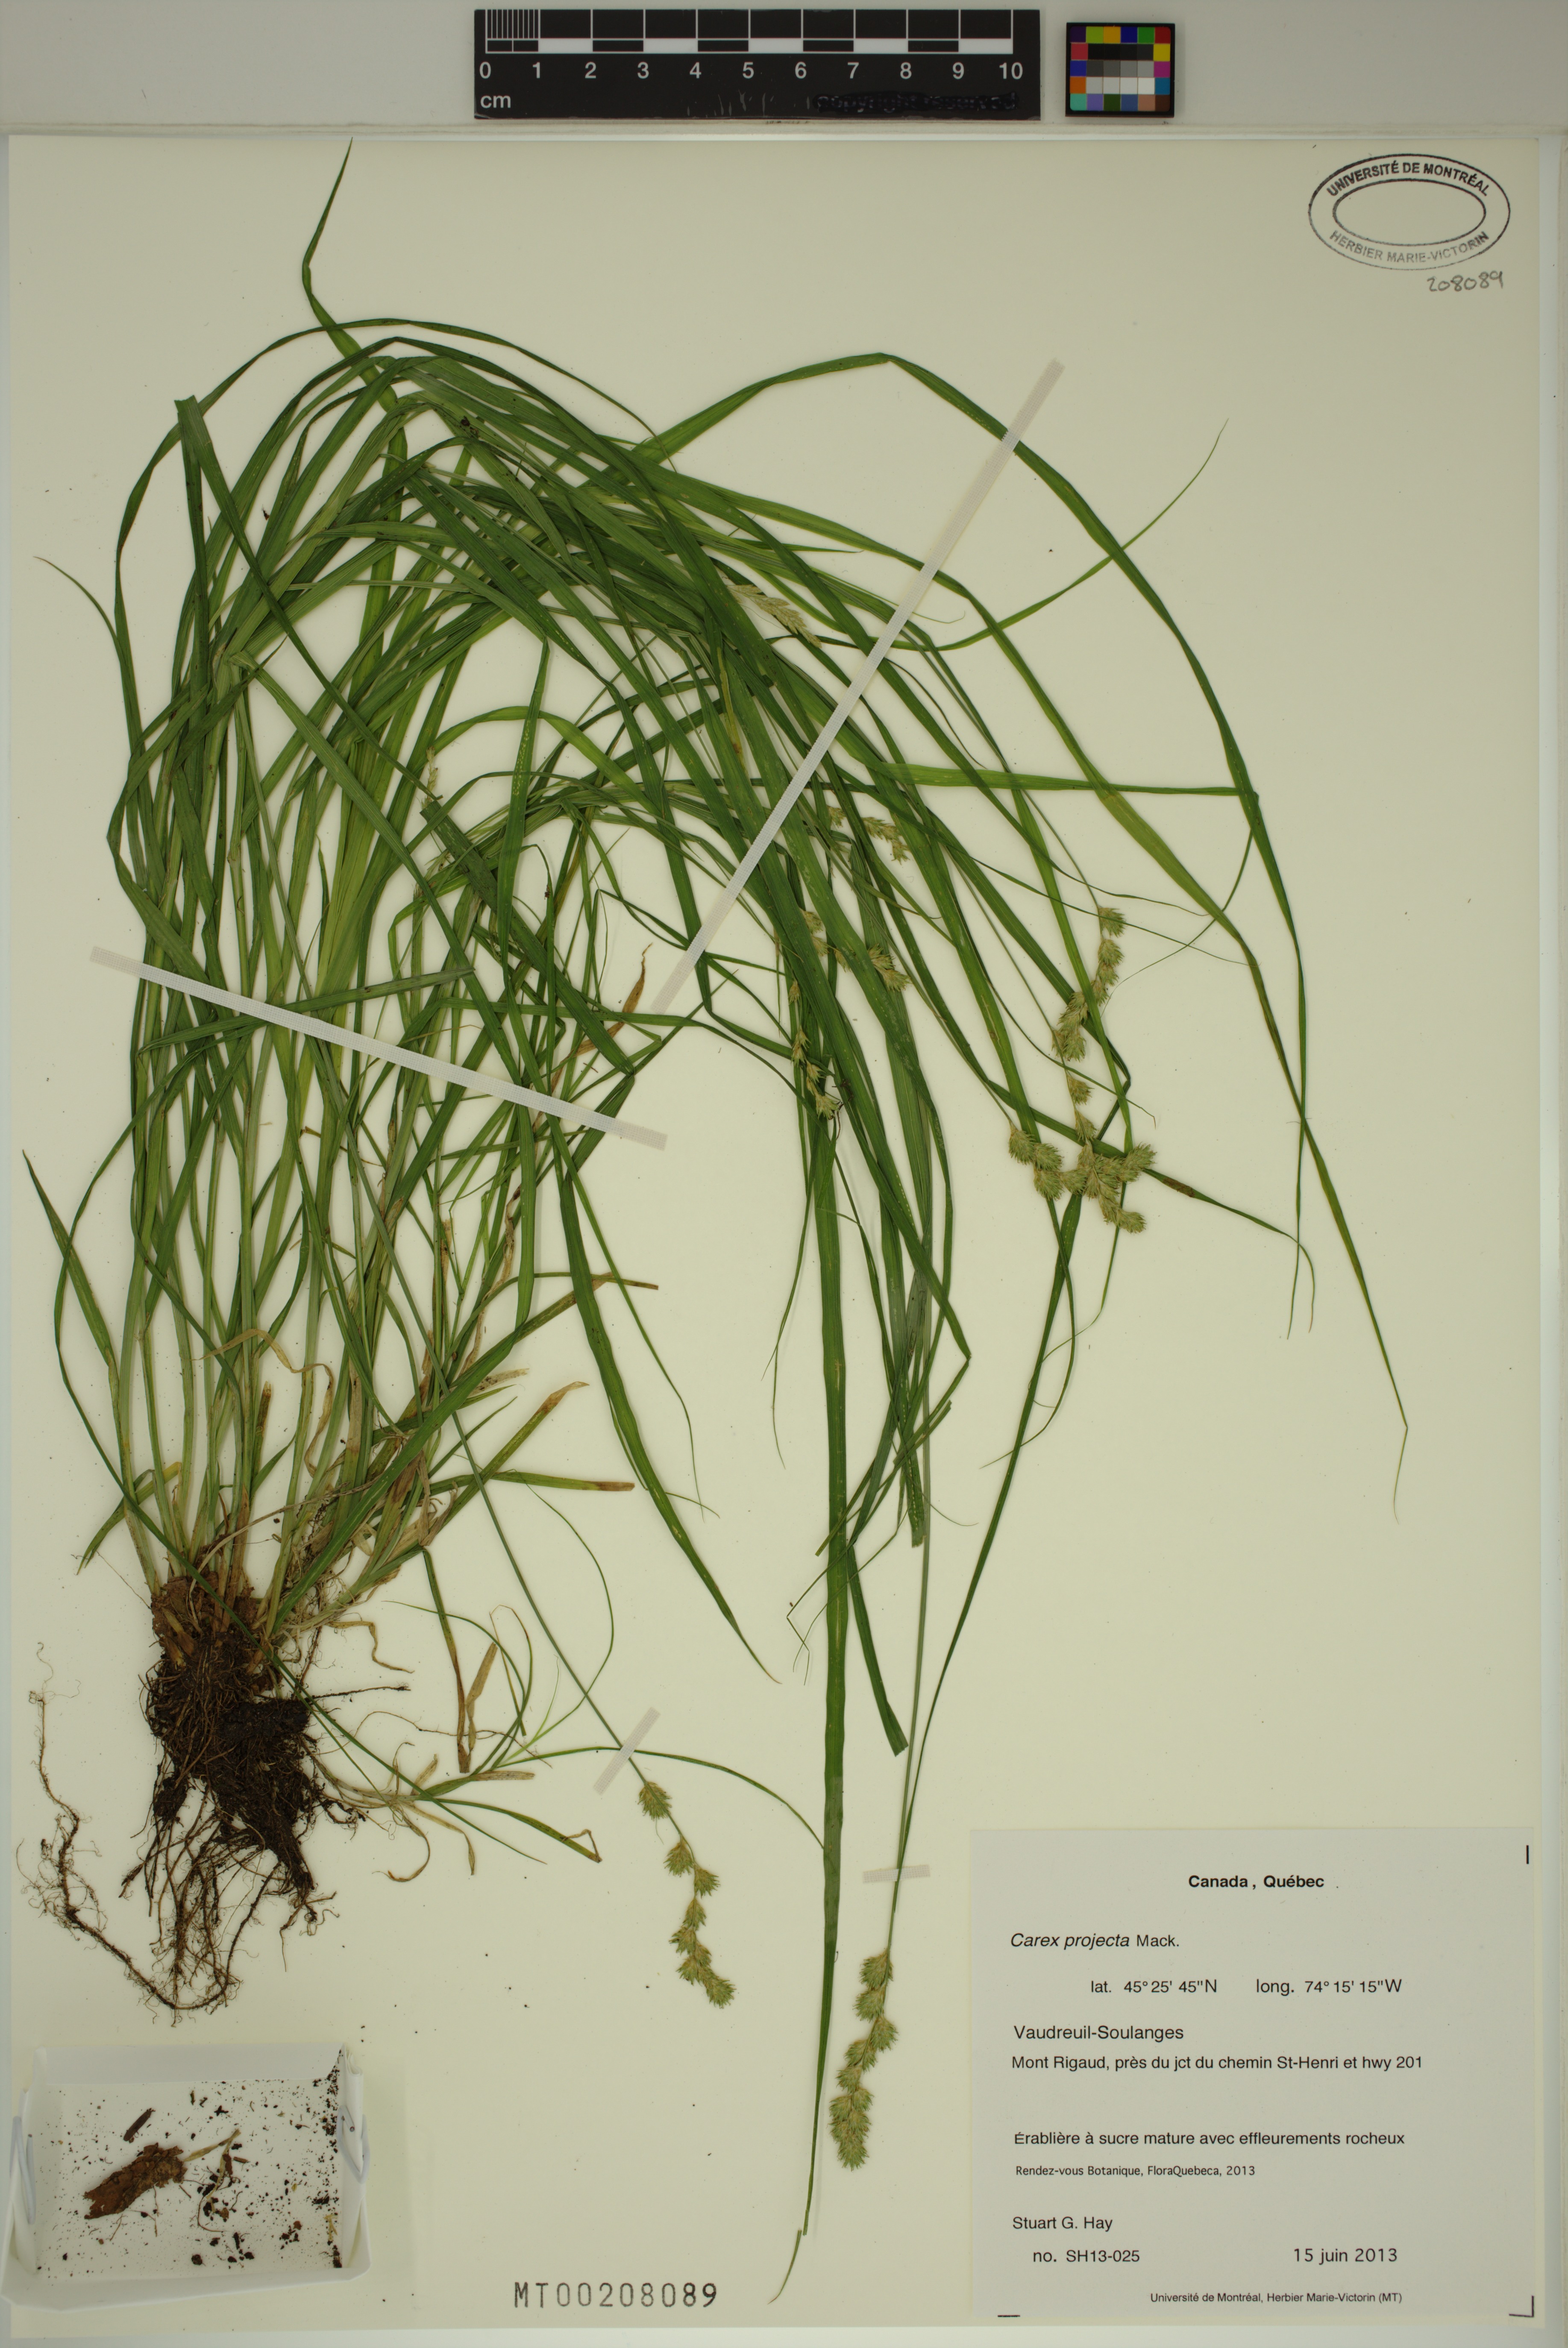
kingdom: Plantae
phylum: Tracheophyta
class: Liliopsida
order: Poales
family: Cyperaceae
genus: Carex
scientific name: Carex projecta
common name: Loose-headed oval sedge
